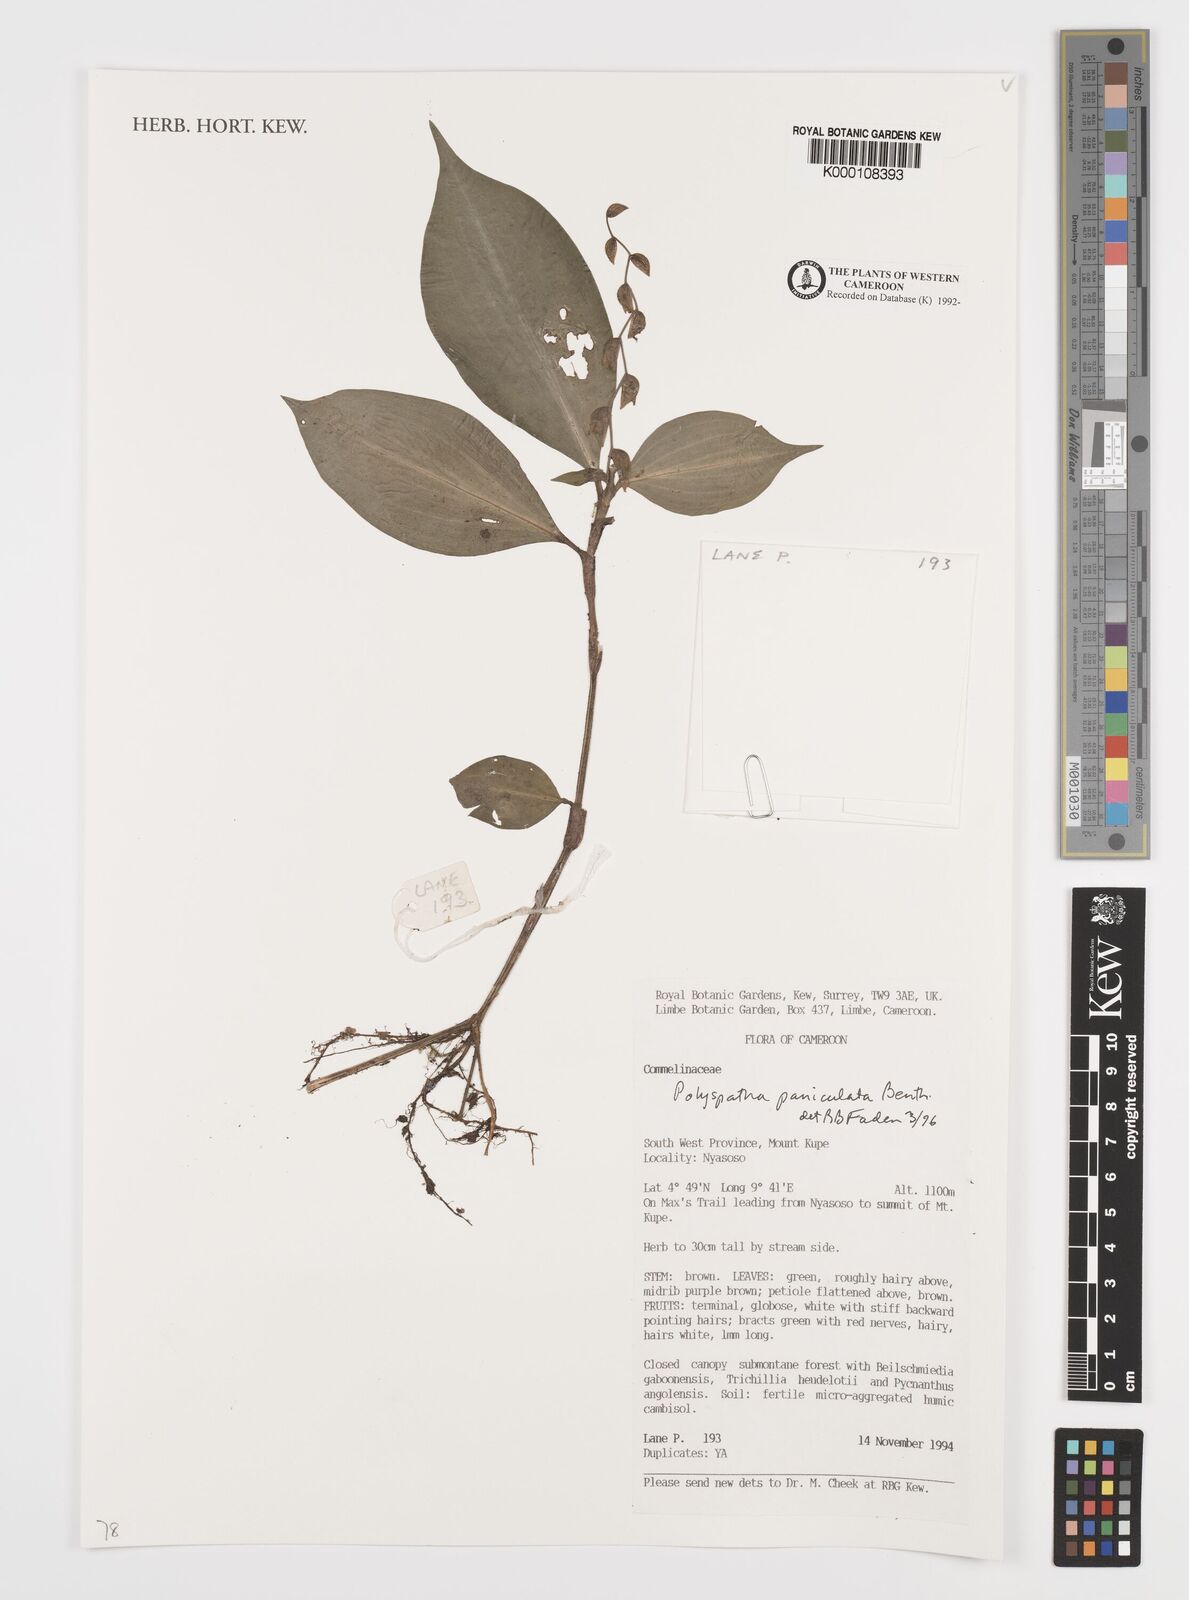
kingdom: Plantae
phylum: Tracheophyta
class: Liliopsida
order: Commelinales
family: Commelinaceae
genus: Polyspatha
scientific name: Polyspatha paniculata
